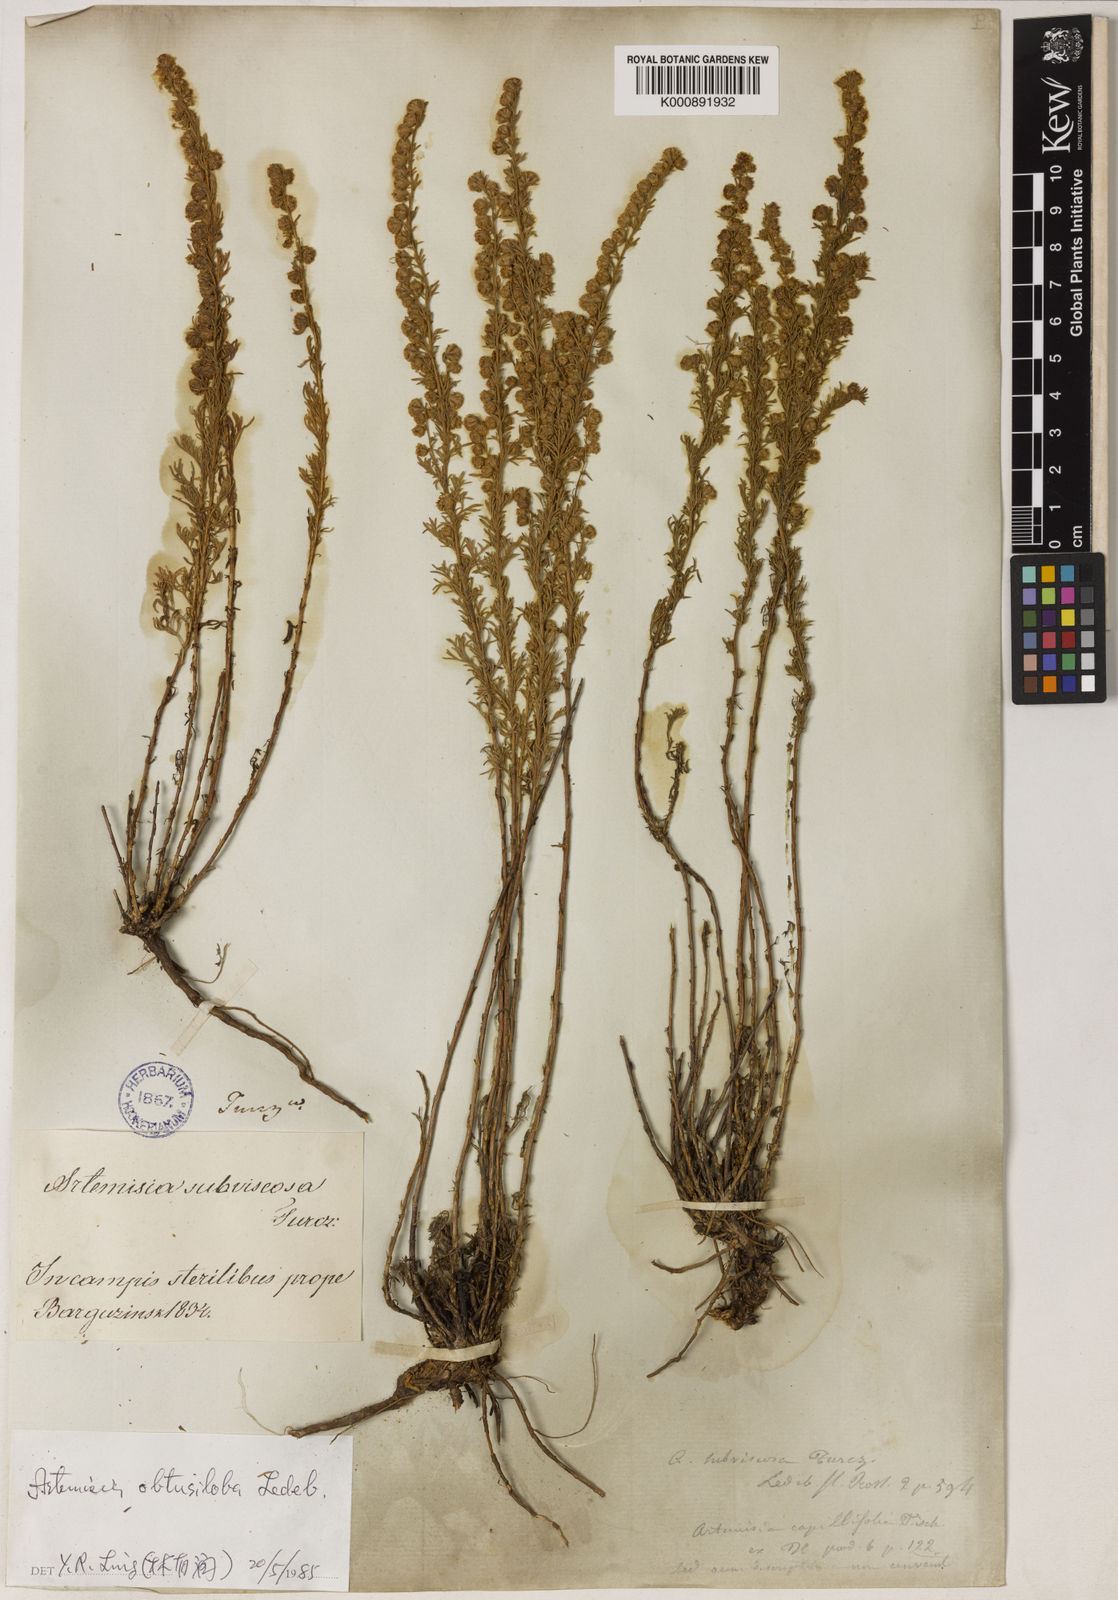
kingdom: Plantae
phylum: Tracheophyta
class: Magnoliopsida
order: Asterales
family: Asteraceae
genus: Artemisia
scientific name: Artemisia obtusiloba
